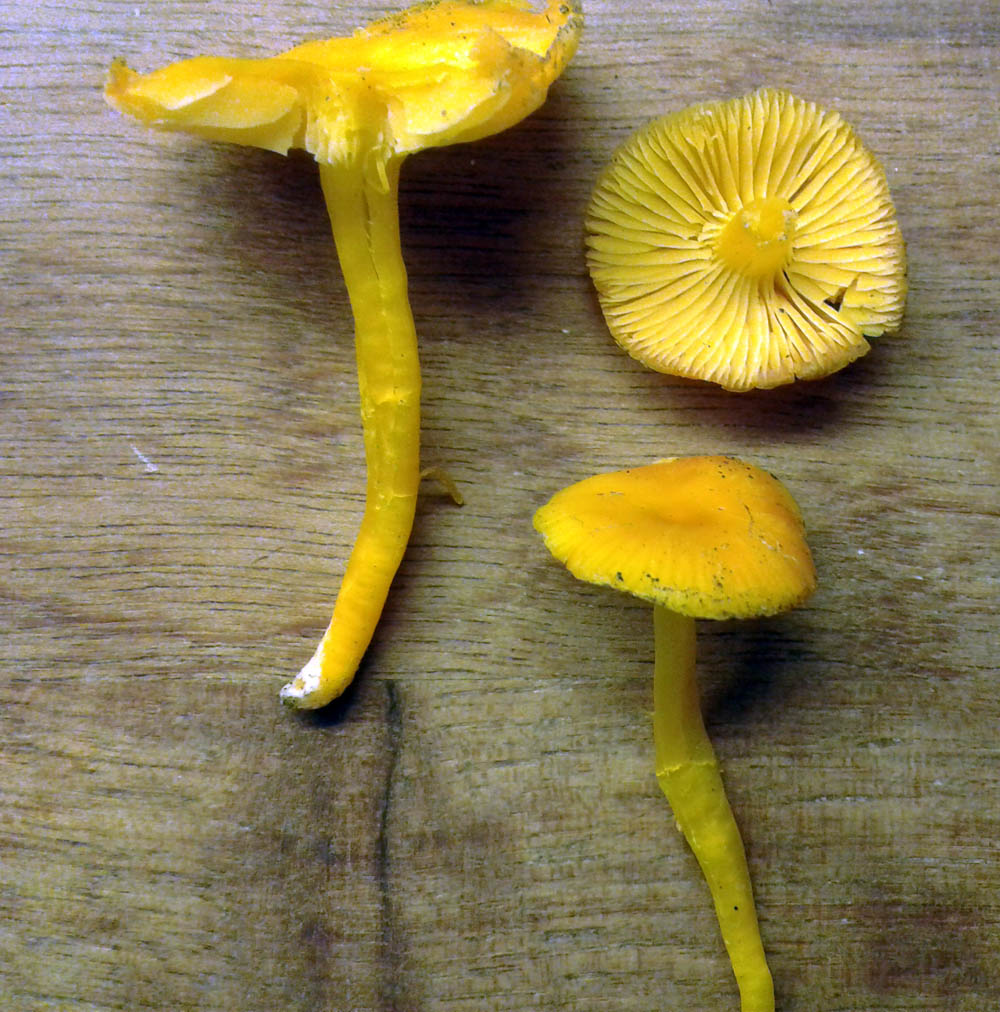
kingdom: Fungi
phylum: Basidiomycota
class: Agaricomycetes
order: Agaricales
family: Hygrophoraceae
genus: Hygrocybe
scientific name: Hygrocybe ceracea
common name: voksgul vokshat
